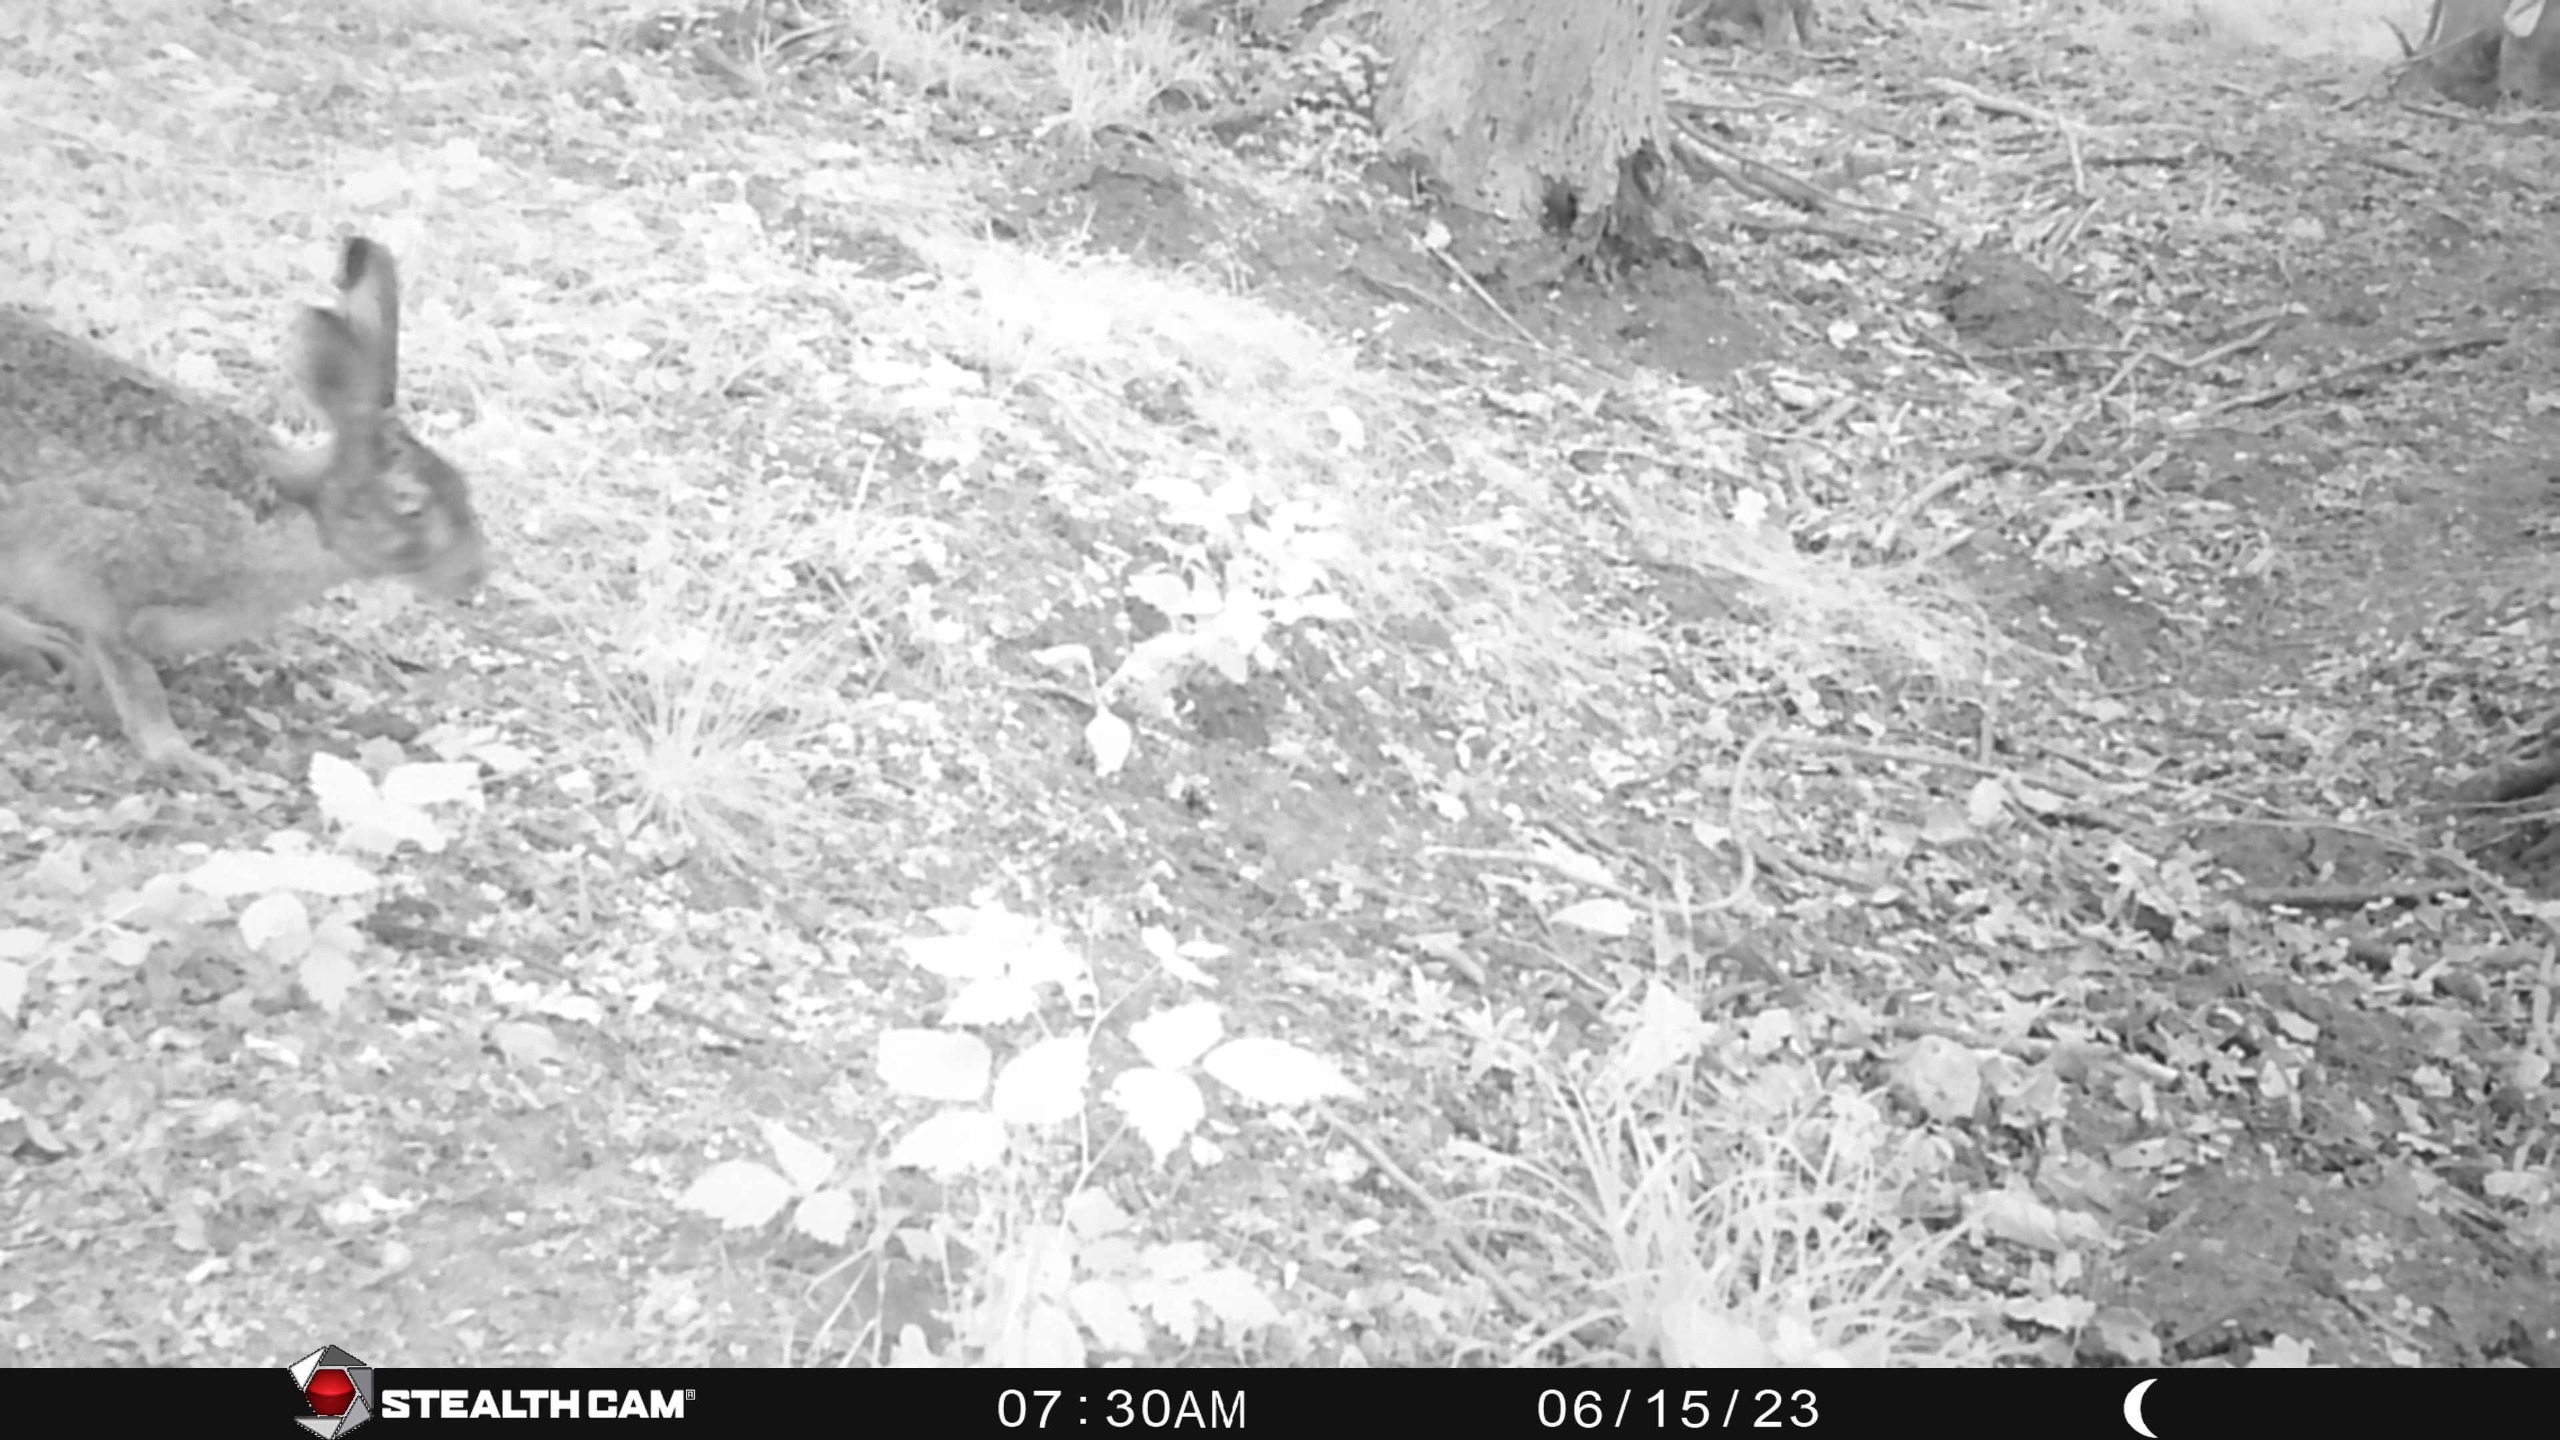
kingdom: Animalia
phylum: Chordata
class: Mammalia
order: Lagomorpha
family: Leporidae
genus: Lepus
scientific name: Lepus europaeus
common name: Hare
